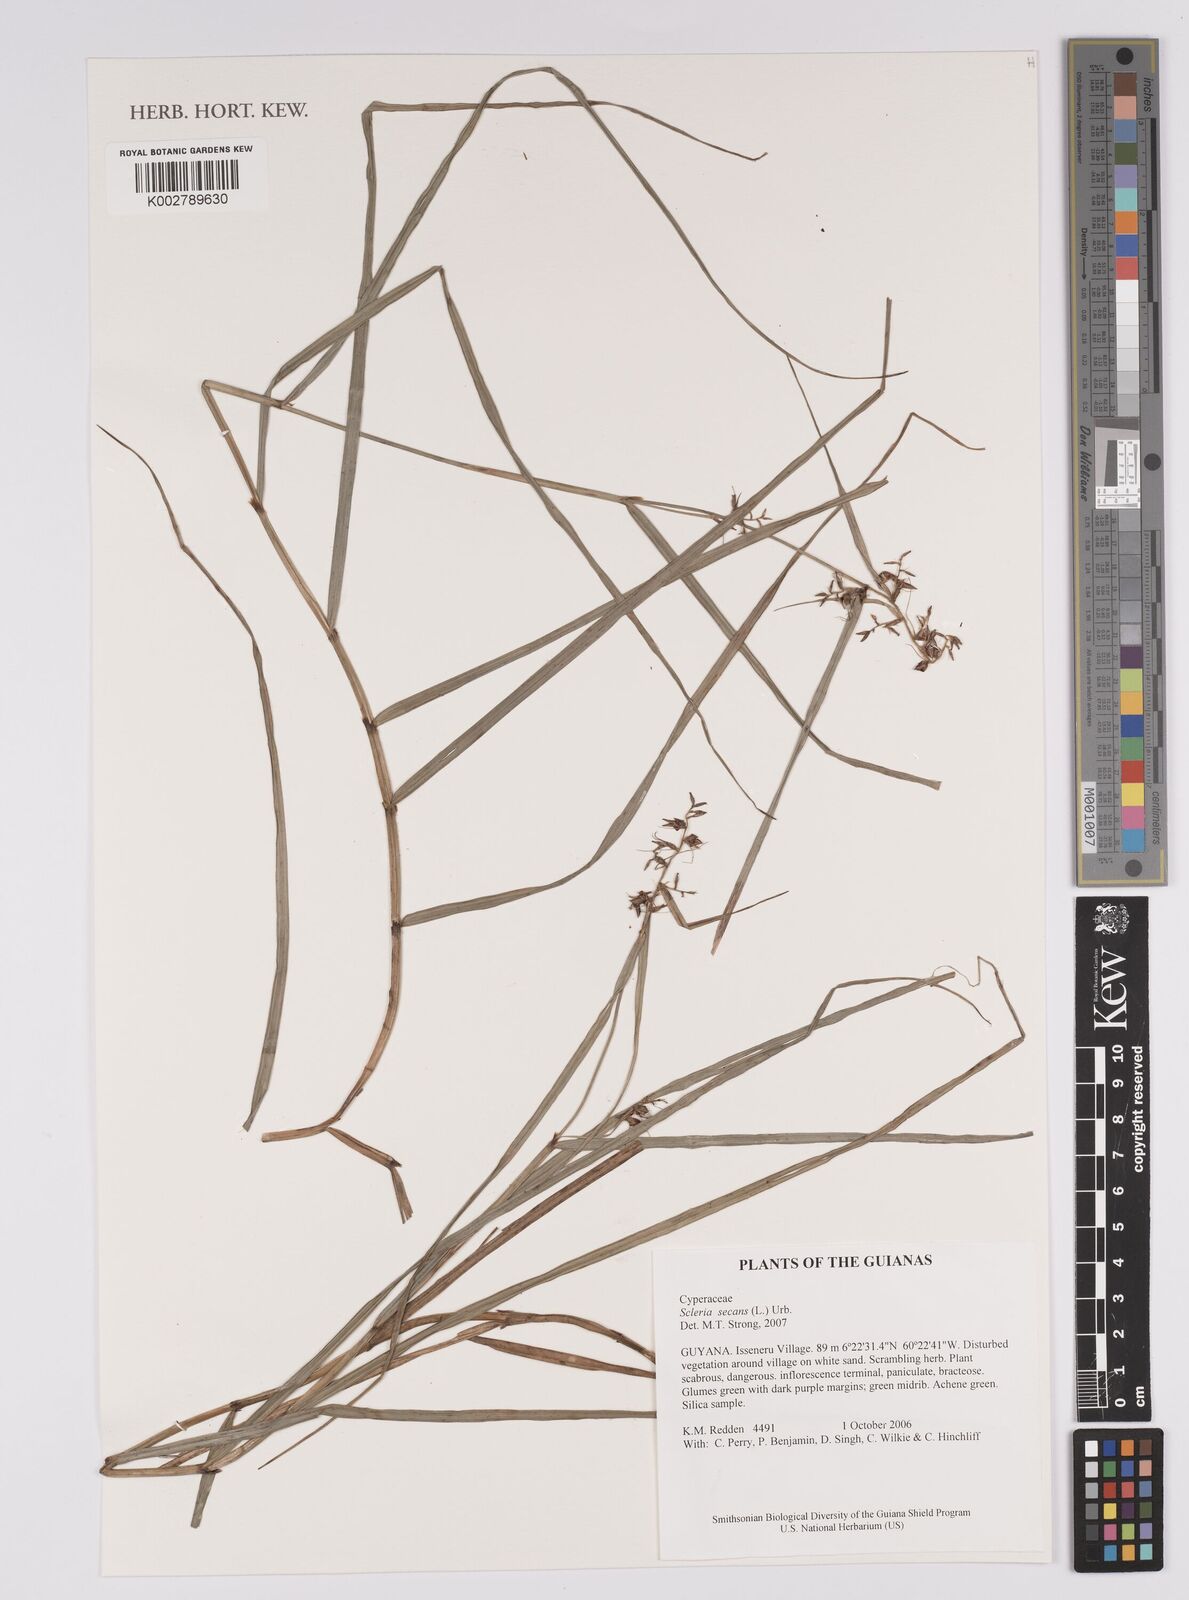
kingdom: Plantae
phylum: Tracheophyta
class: Liliopsida
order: Poales
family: Cyperaceae
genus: Scleria
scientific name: Scleria secans
